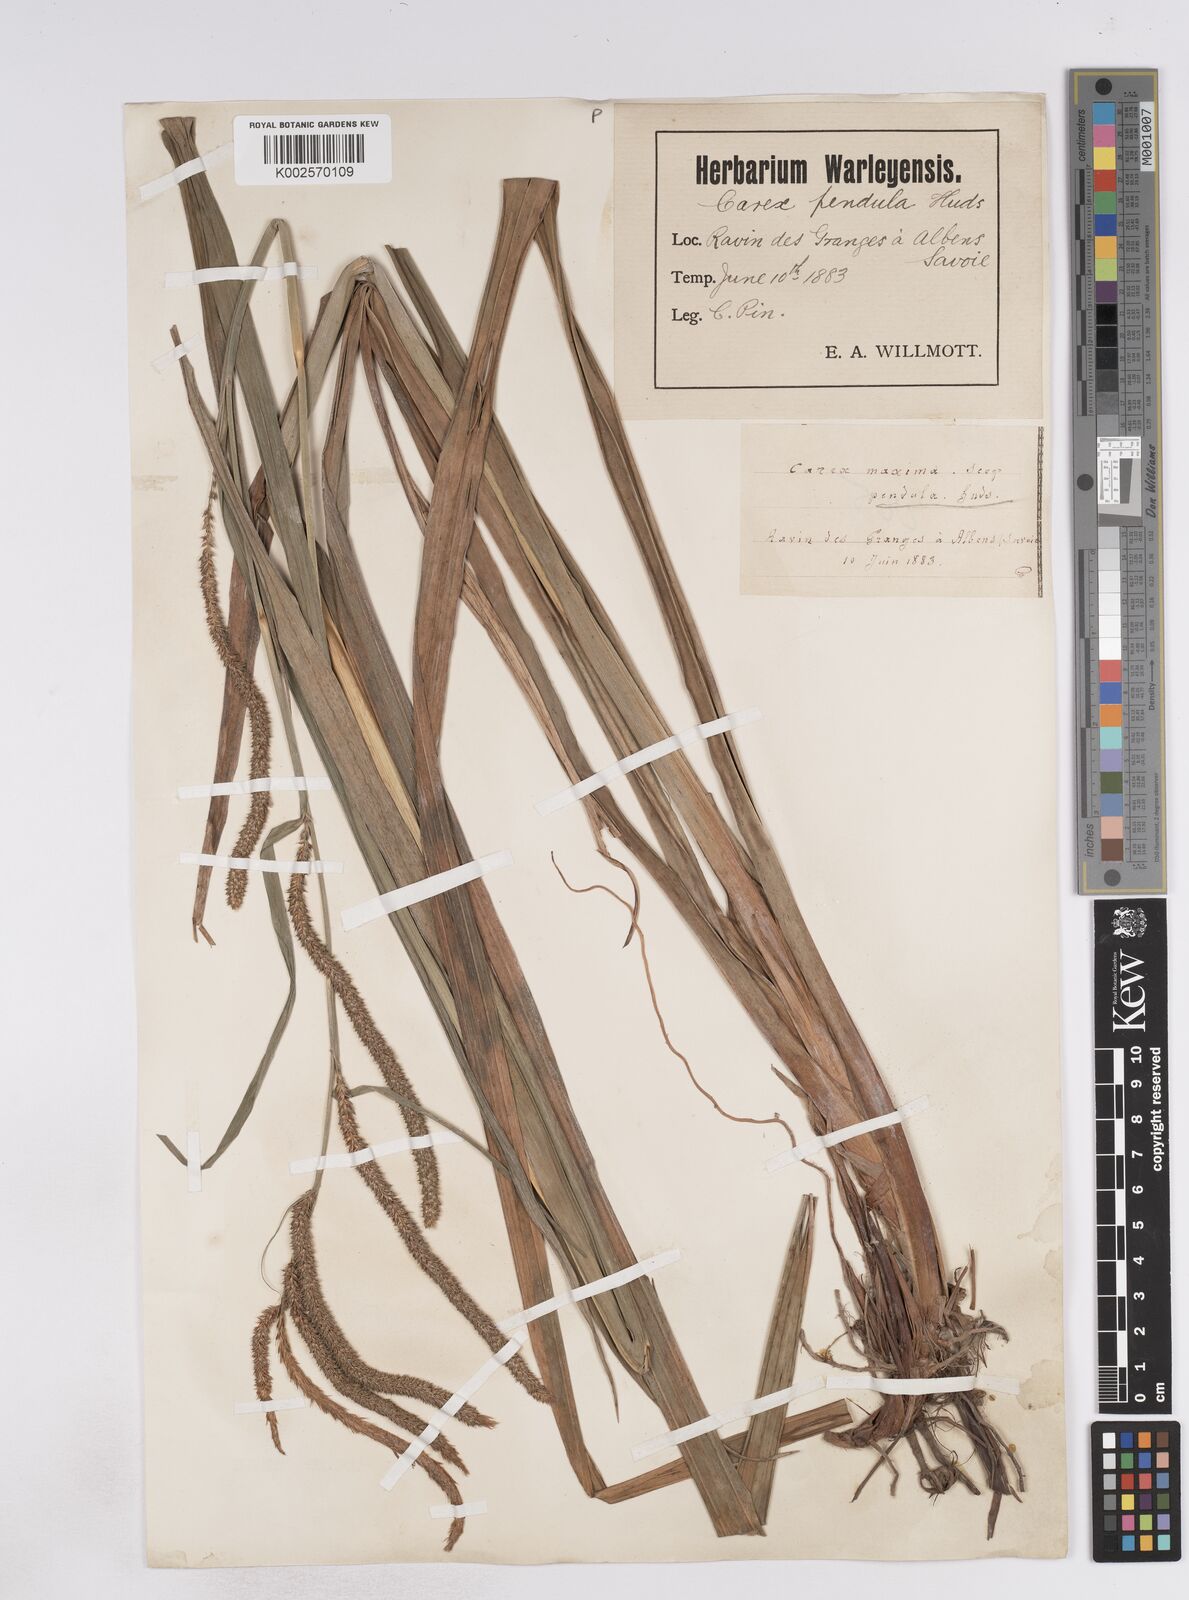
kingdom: Plantae
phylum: Tracheophyta
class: Liliopsida
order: Poales
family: Cyperaceae
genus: Carex
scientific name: Carex pendula
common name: Pendulous sedge
